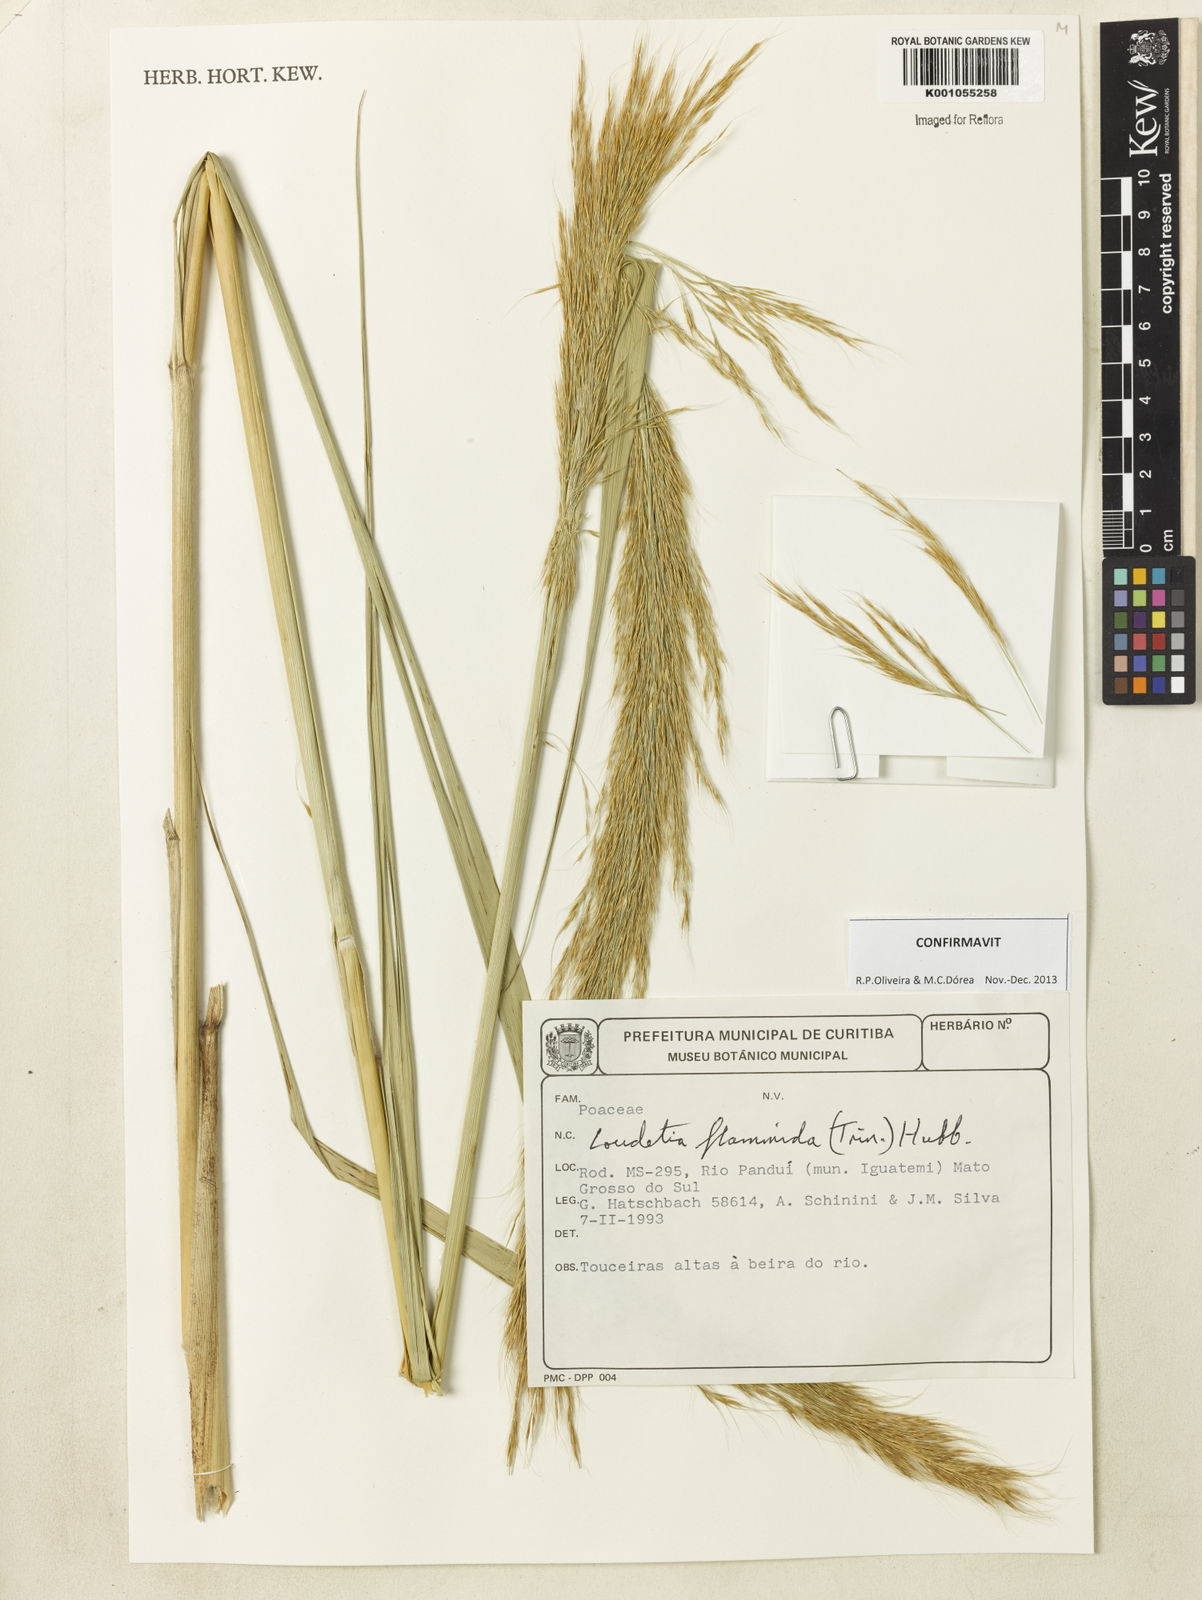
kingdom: Plantae
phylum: Tracheophyta
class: Liliopsida
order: Poales
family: Poaceae
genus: Loudetia
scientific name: Loudetia flammida
